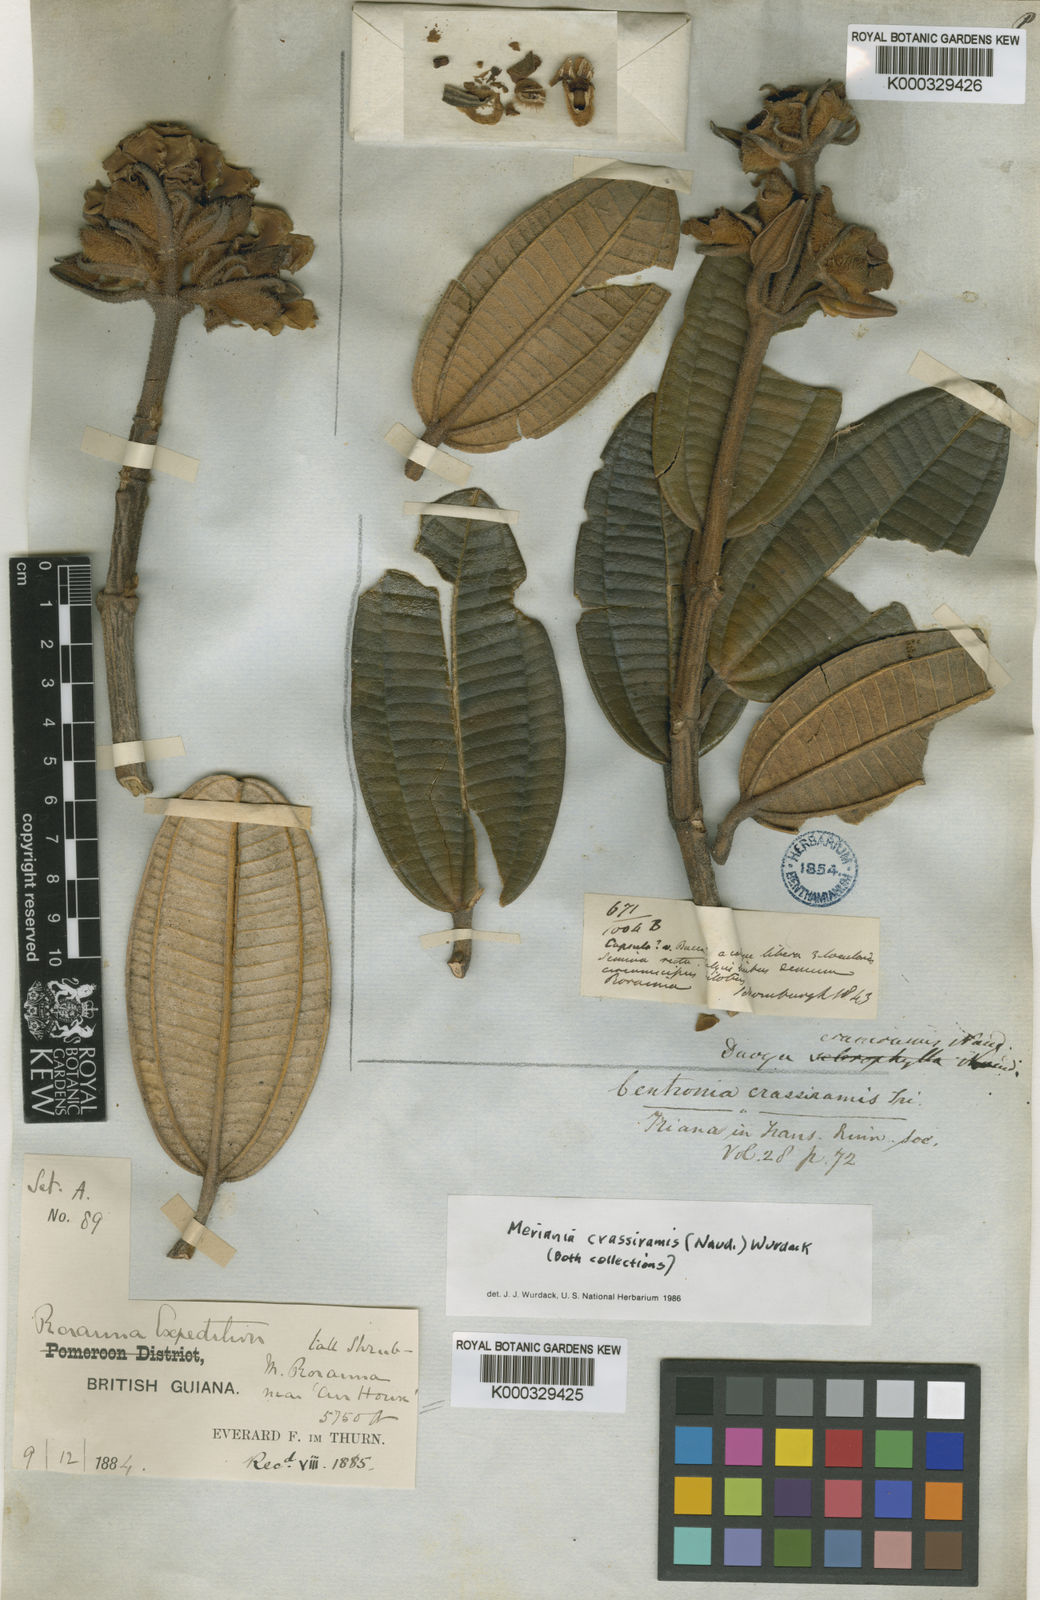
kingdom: Plantae
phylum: Tracheophyta
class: Magnoliopsida
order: Myrtales
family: Melastomataceae
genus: Meriania
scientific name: Meriania crassiramis
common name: Thickbranche buglelily
